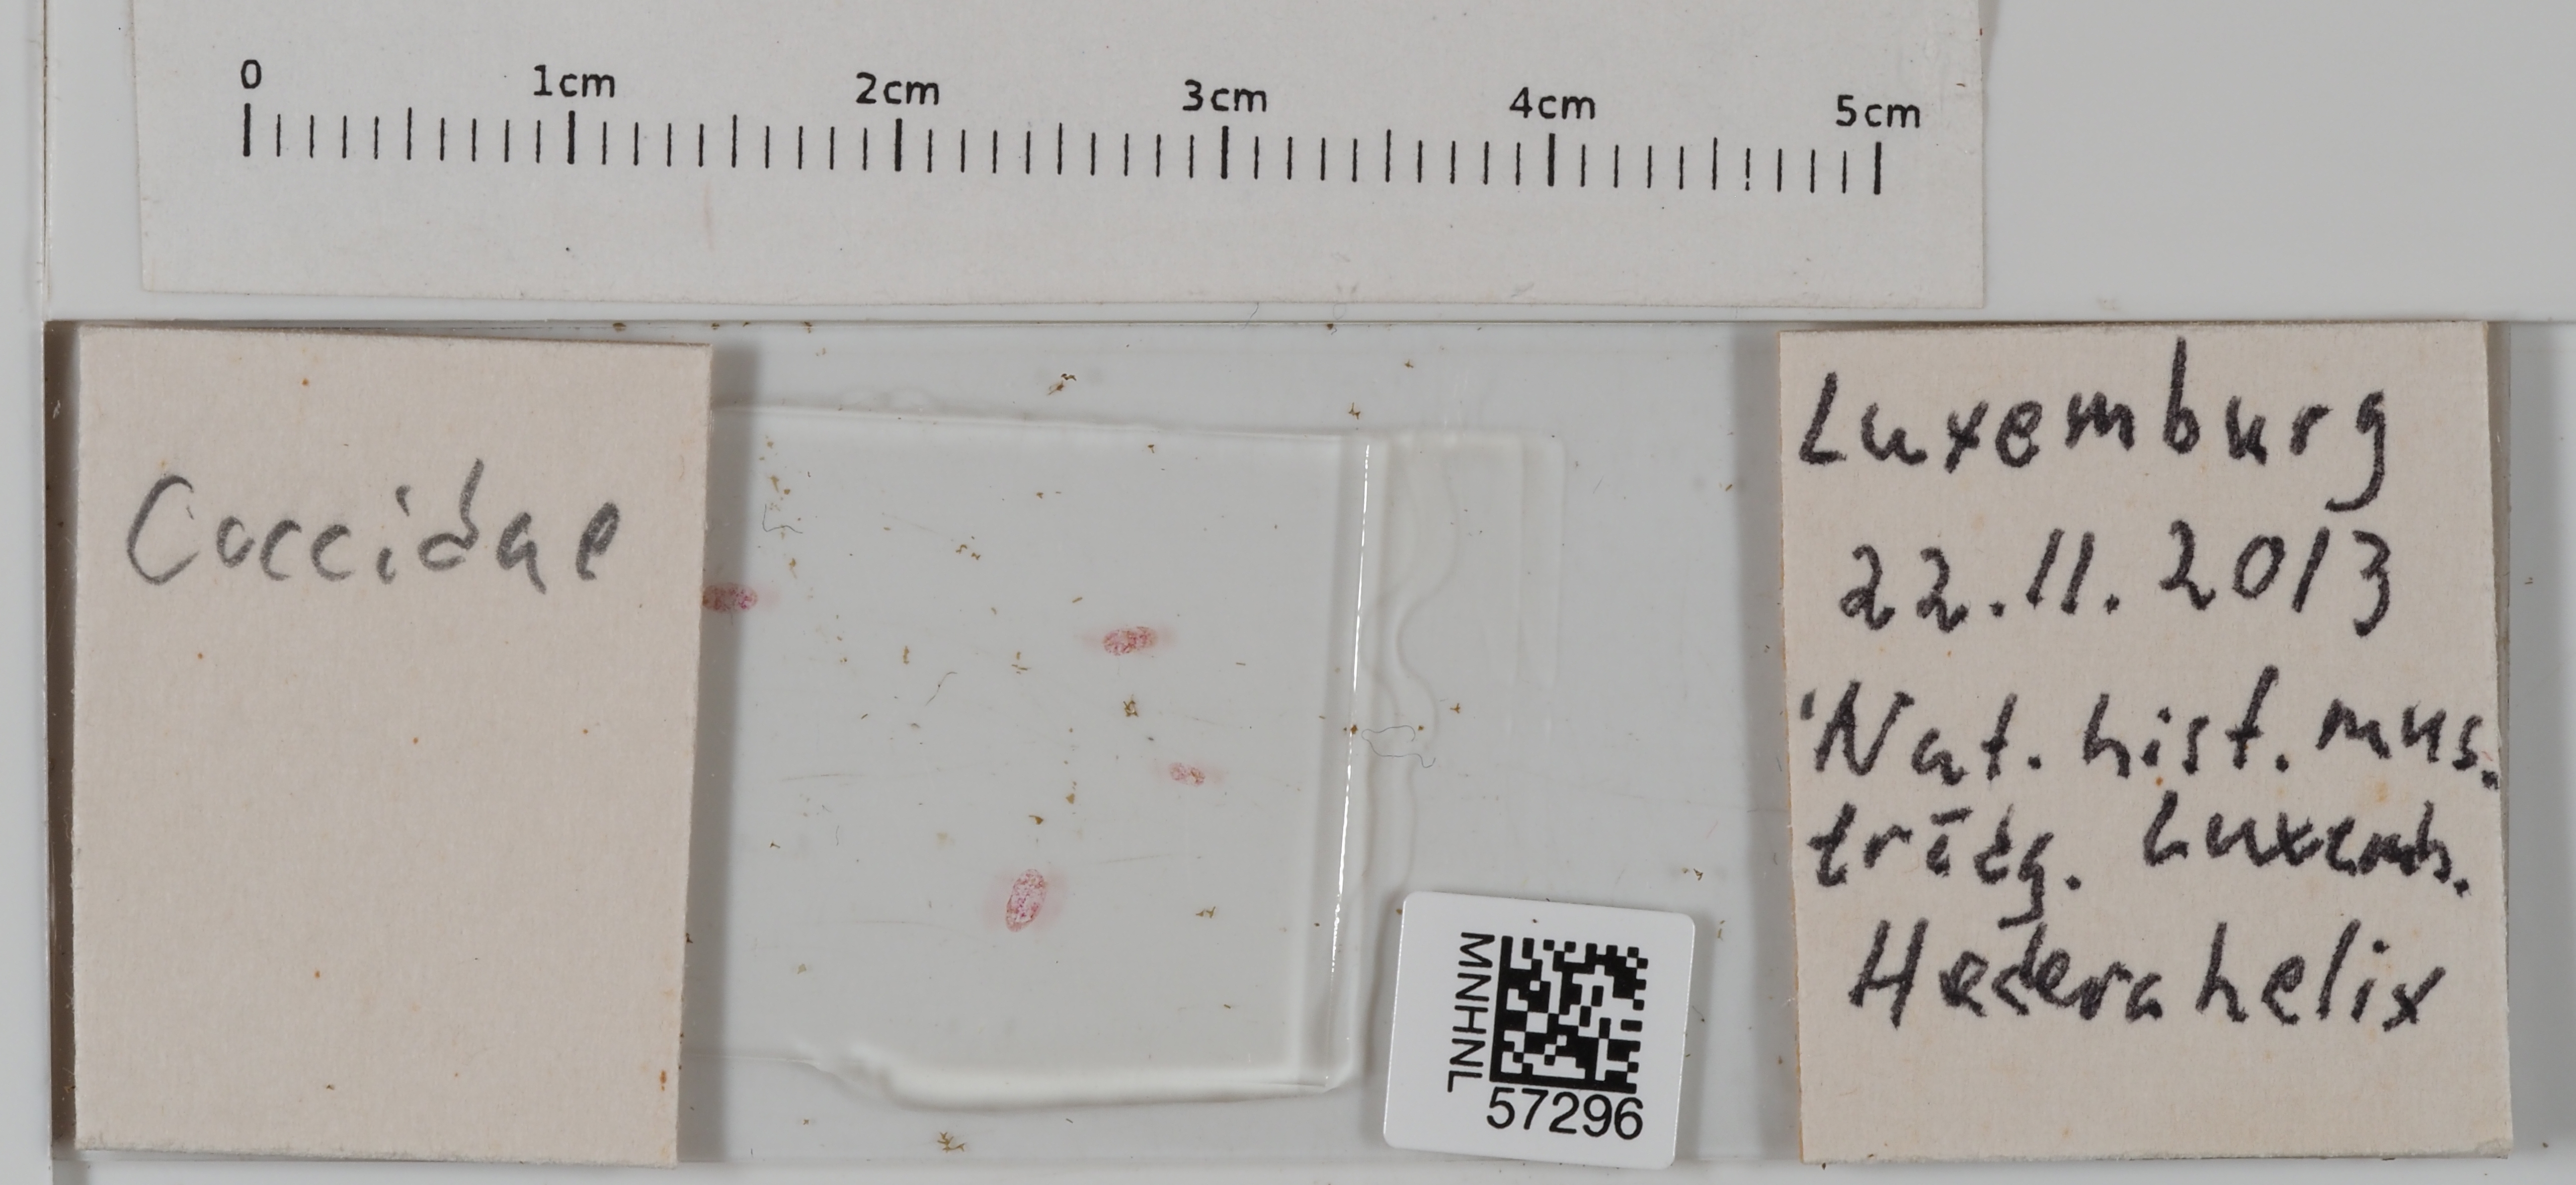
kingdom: Animalia
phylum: Arthropoda
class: Insecta
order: Hemiptera
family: Coccidae
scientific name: Coccidae
